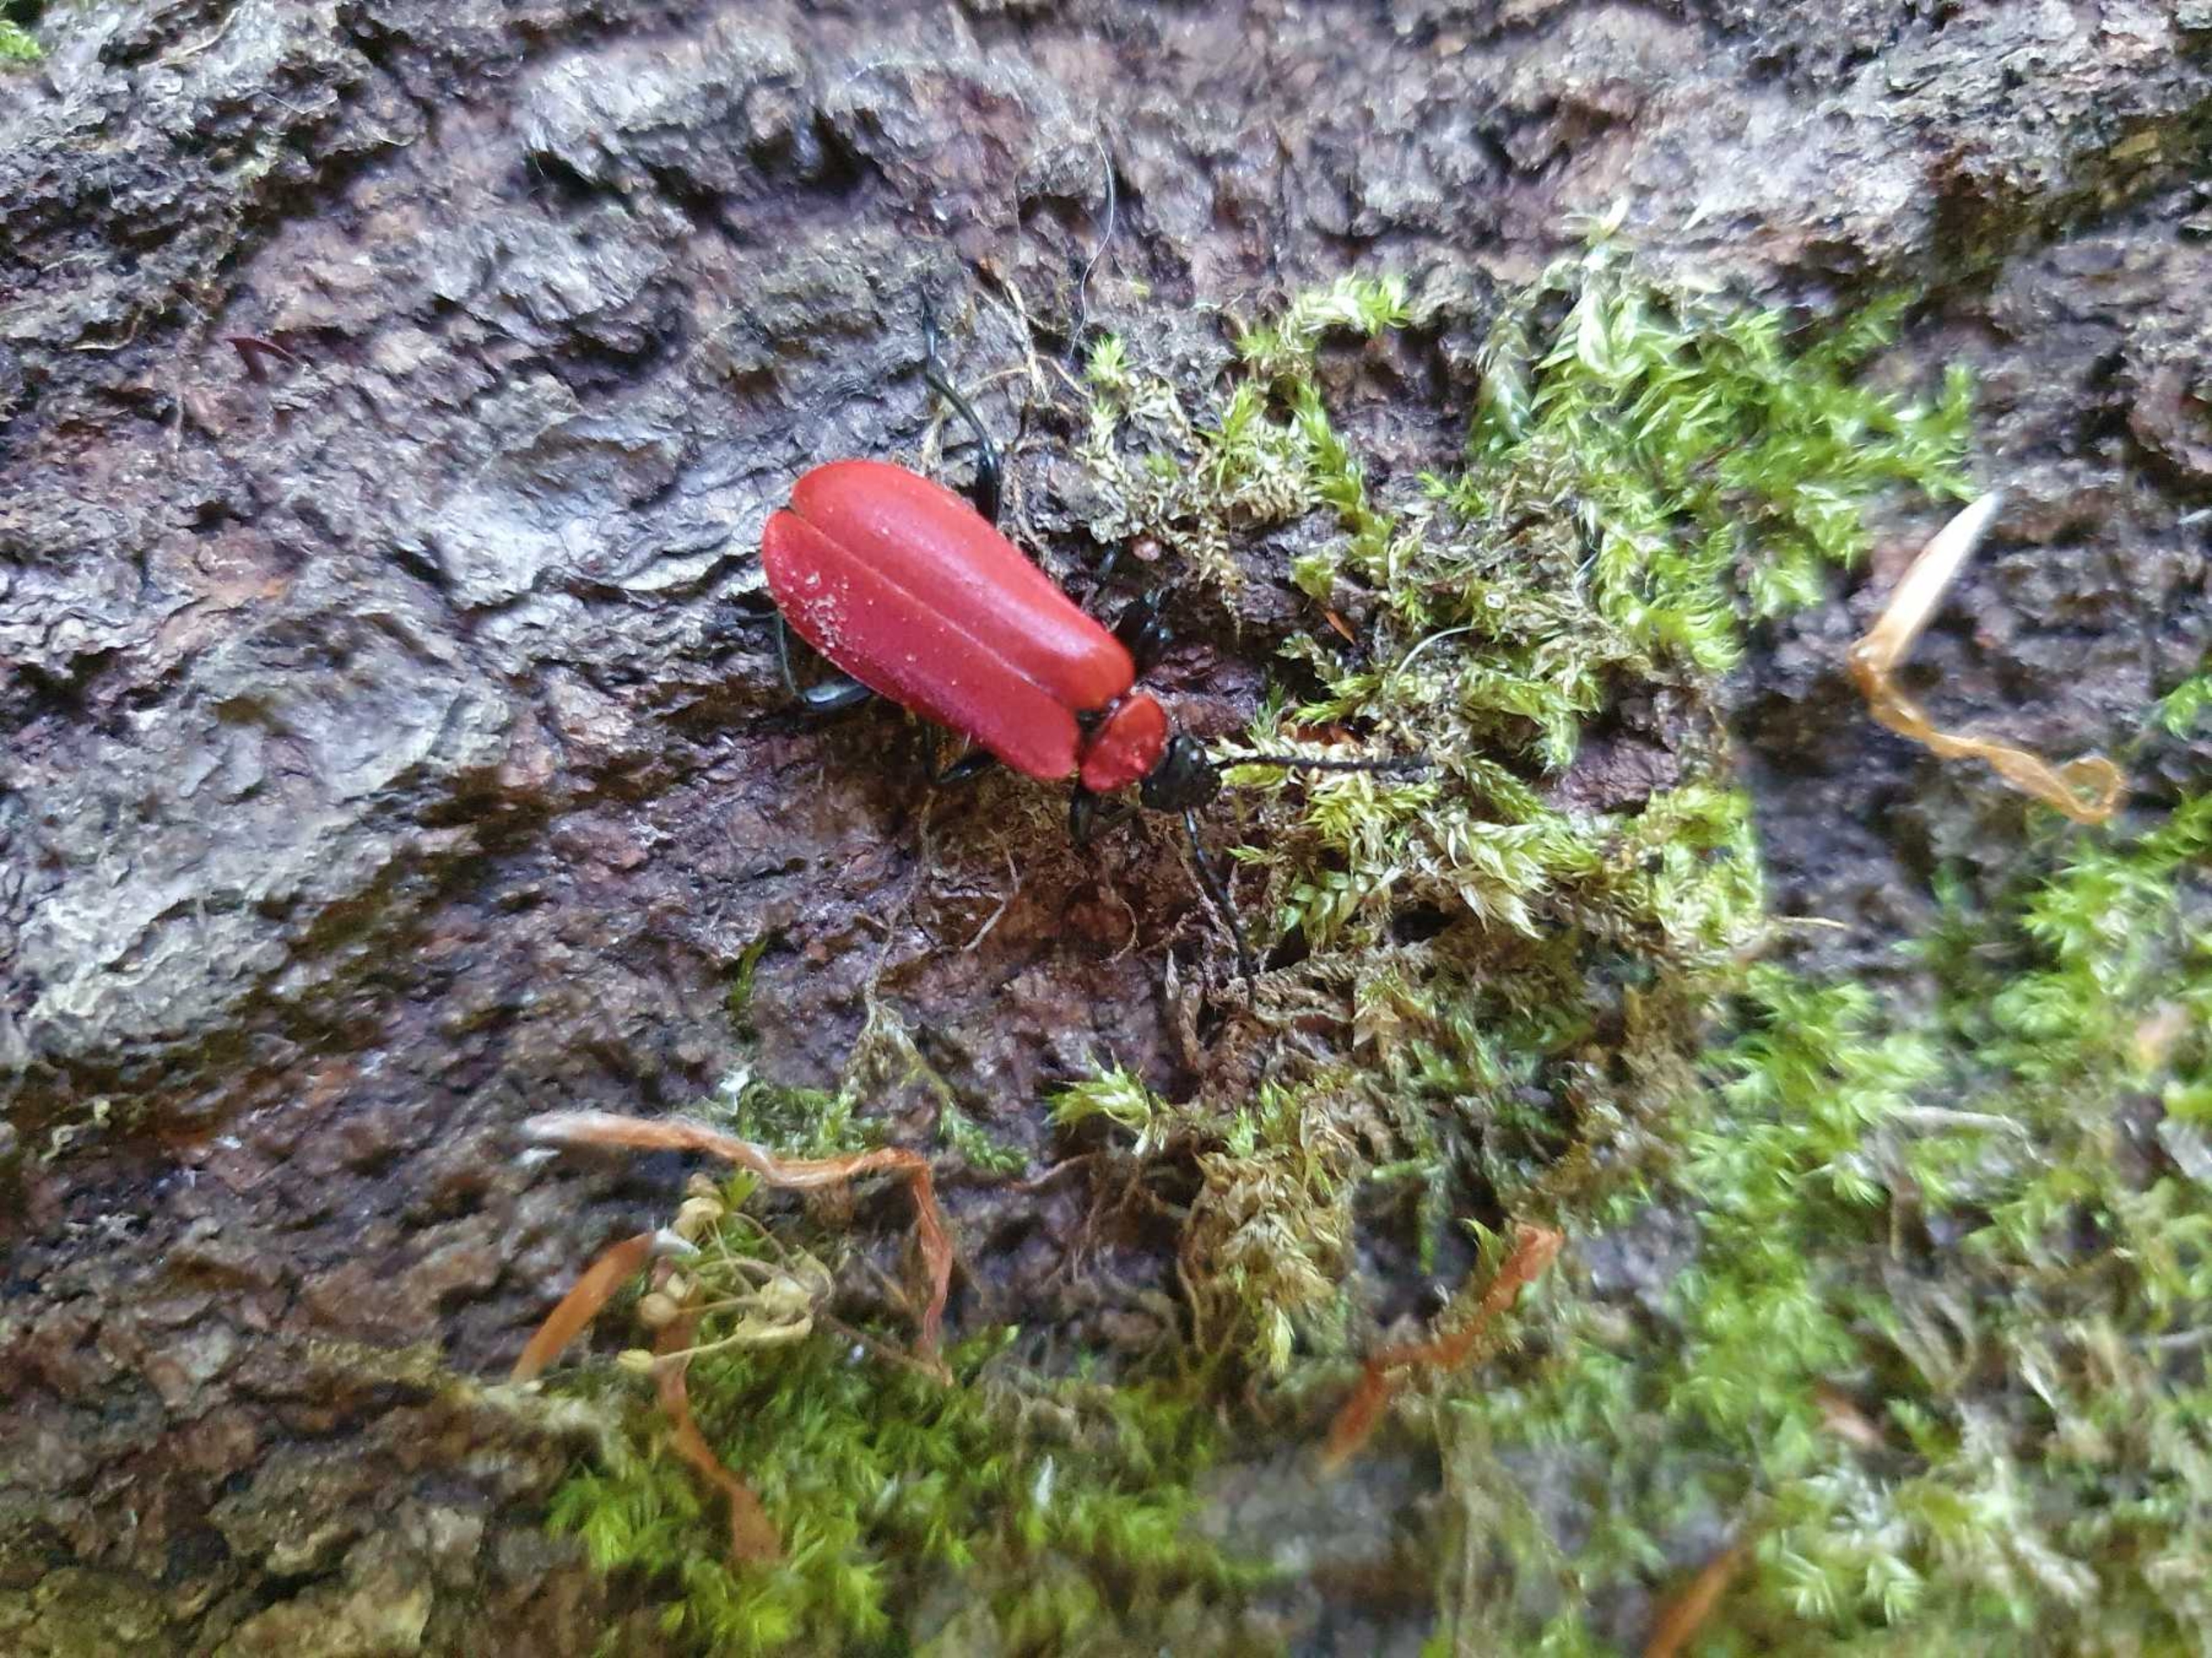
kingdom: Animalia
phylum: Arthropoda
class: Insecta
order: Coleoptera
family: Pyrochroidae
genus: Pyrochroa
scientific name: Pyrochroa coccinea
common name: Sorthovedet kardinalbille
